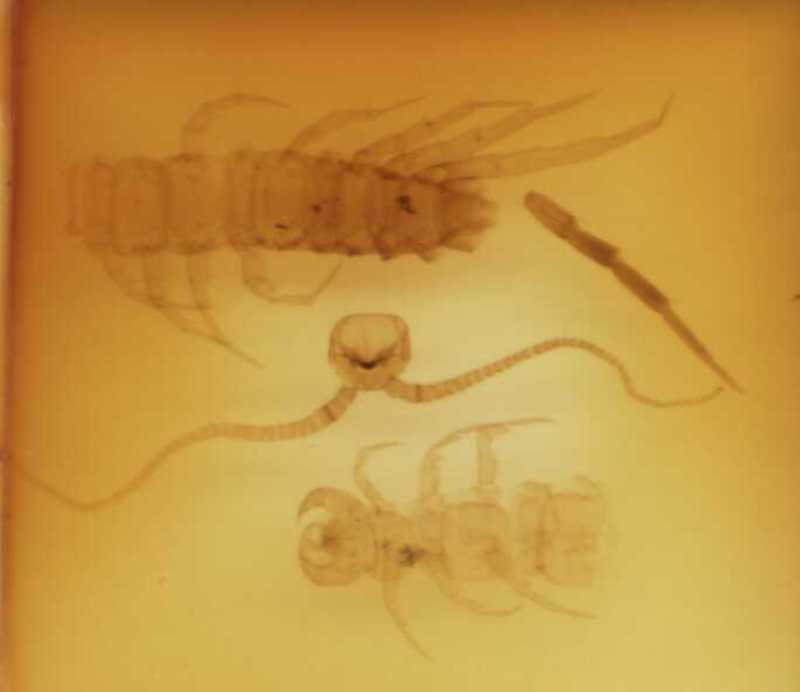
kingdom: Animalia
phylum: Arthropoda
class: Chilopoda
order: Lithobiomorpha
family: Lithobiidae
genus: Lithobius
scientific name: Lithobius dentatus
